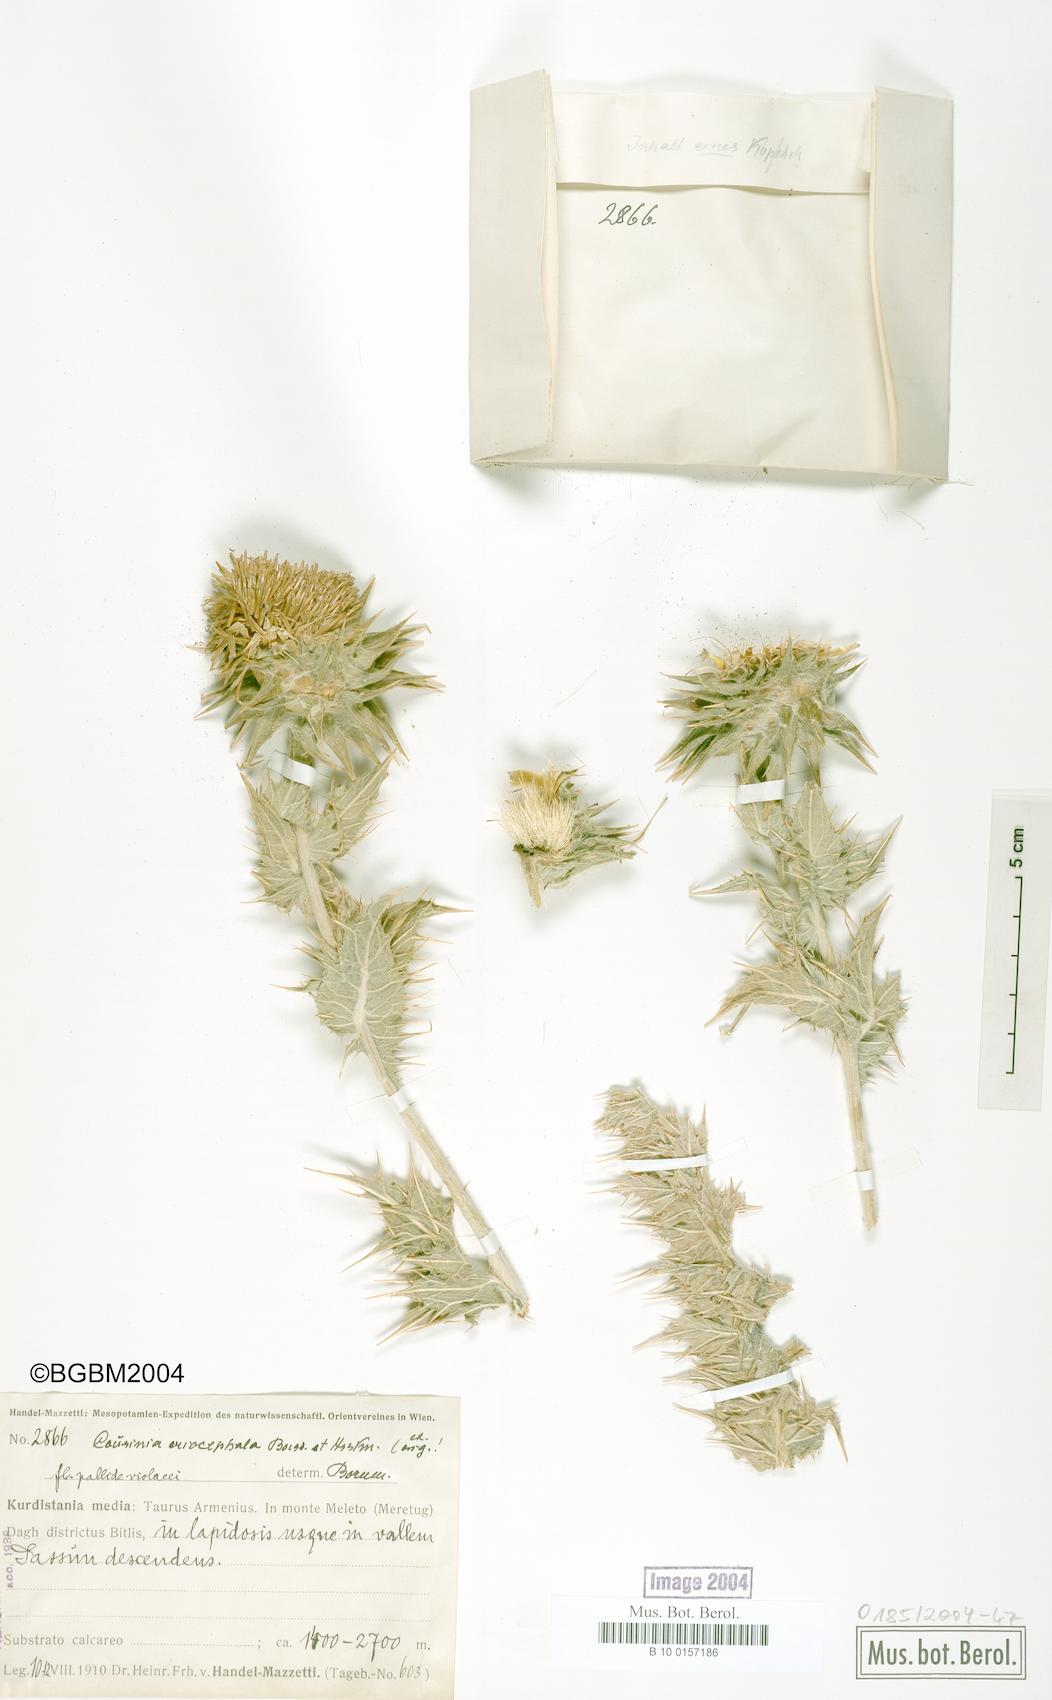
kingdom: Plantae
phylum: Tracheophyta
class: Magnoliopsida
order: Asterales
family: Asteraceae
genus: Cousinia
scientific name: Cousinia canescens
